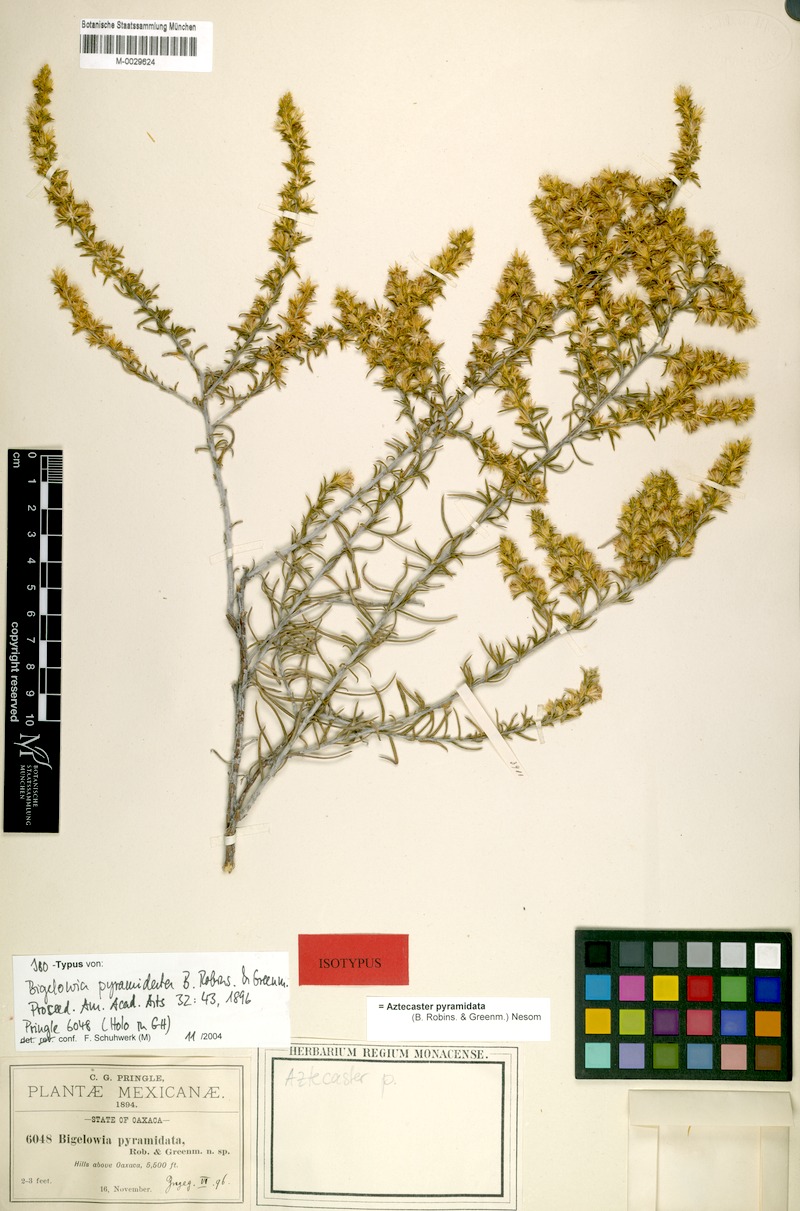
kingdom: Plantae
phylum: Tracheophyta
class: Magnoliopsida
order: Asterales
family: Asteraceae
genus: Aztecaster
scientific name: Aztecaster pyramidatus
